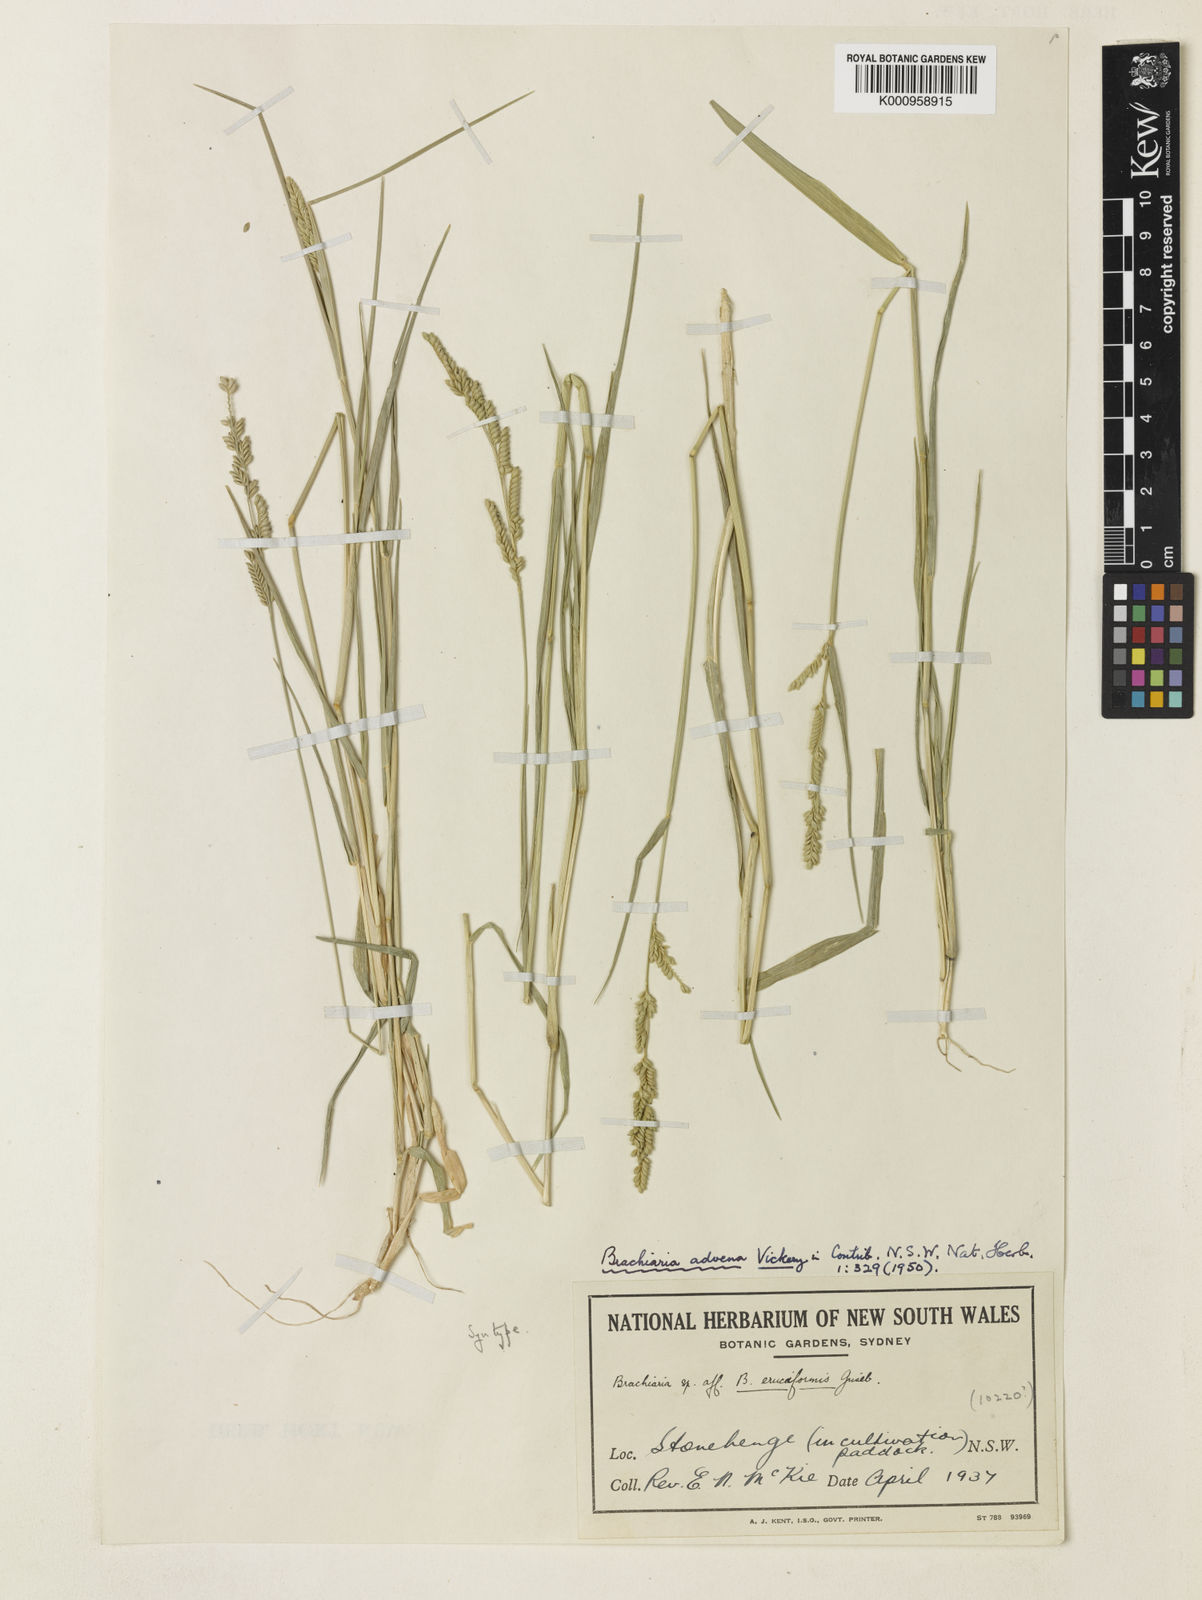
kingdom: Plantae
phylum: Tracheophyta
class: Liliopsida
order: Poales
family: Poaceae
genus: Urochloa
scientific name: Urochloa advena
